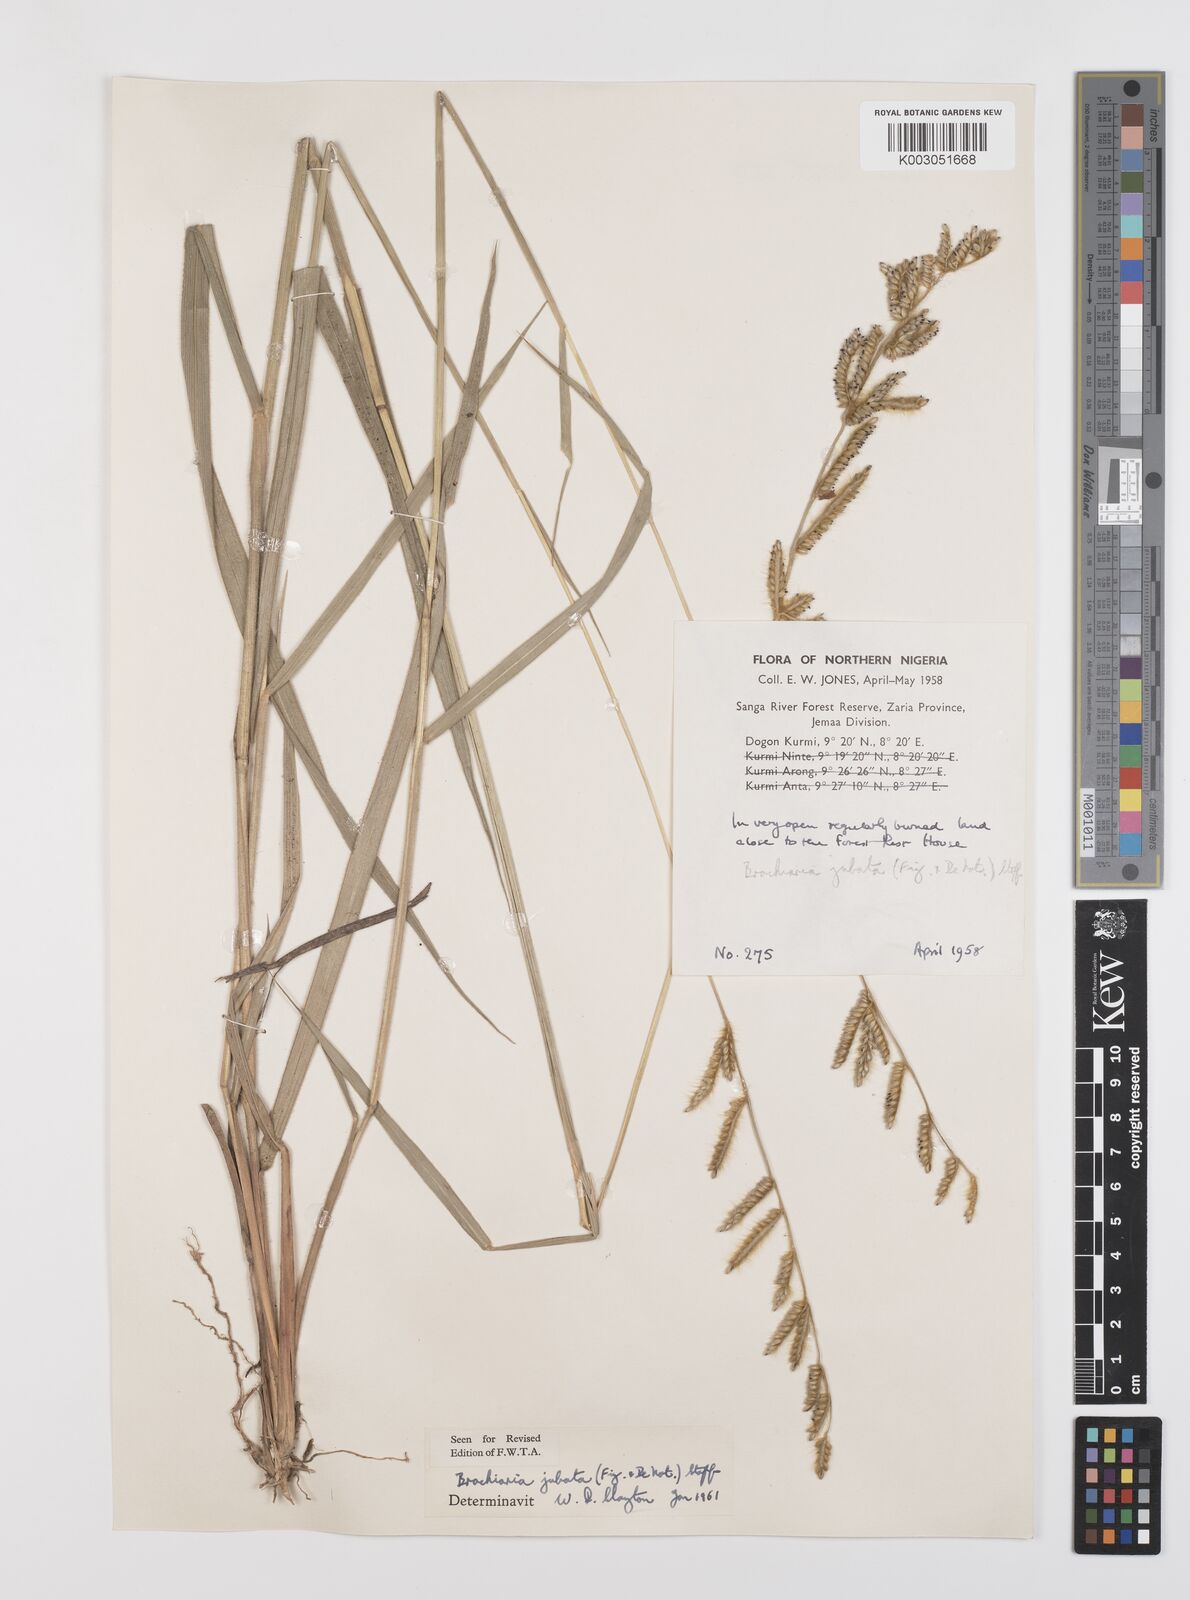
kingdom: Plantae
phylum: Tracheophyta
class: Liliopsida
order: Poales
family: Poaceae
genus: Urochloa
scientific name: Urochloa jubata
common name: Buffalograss
